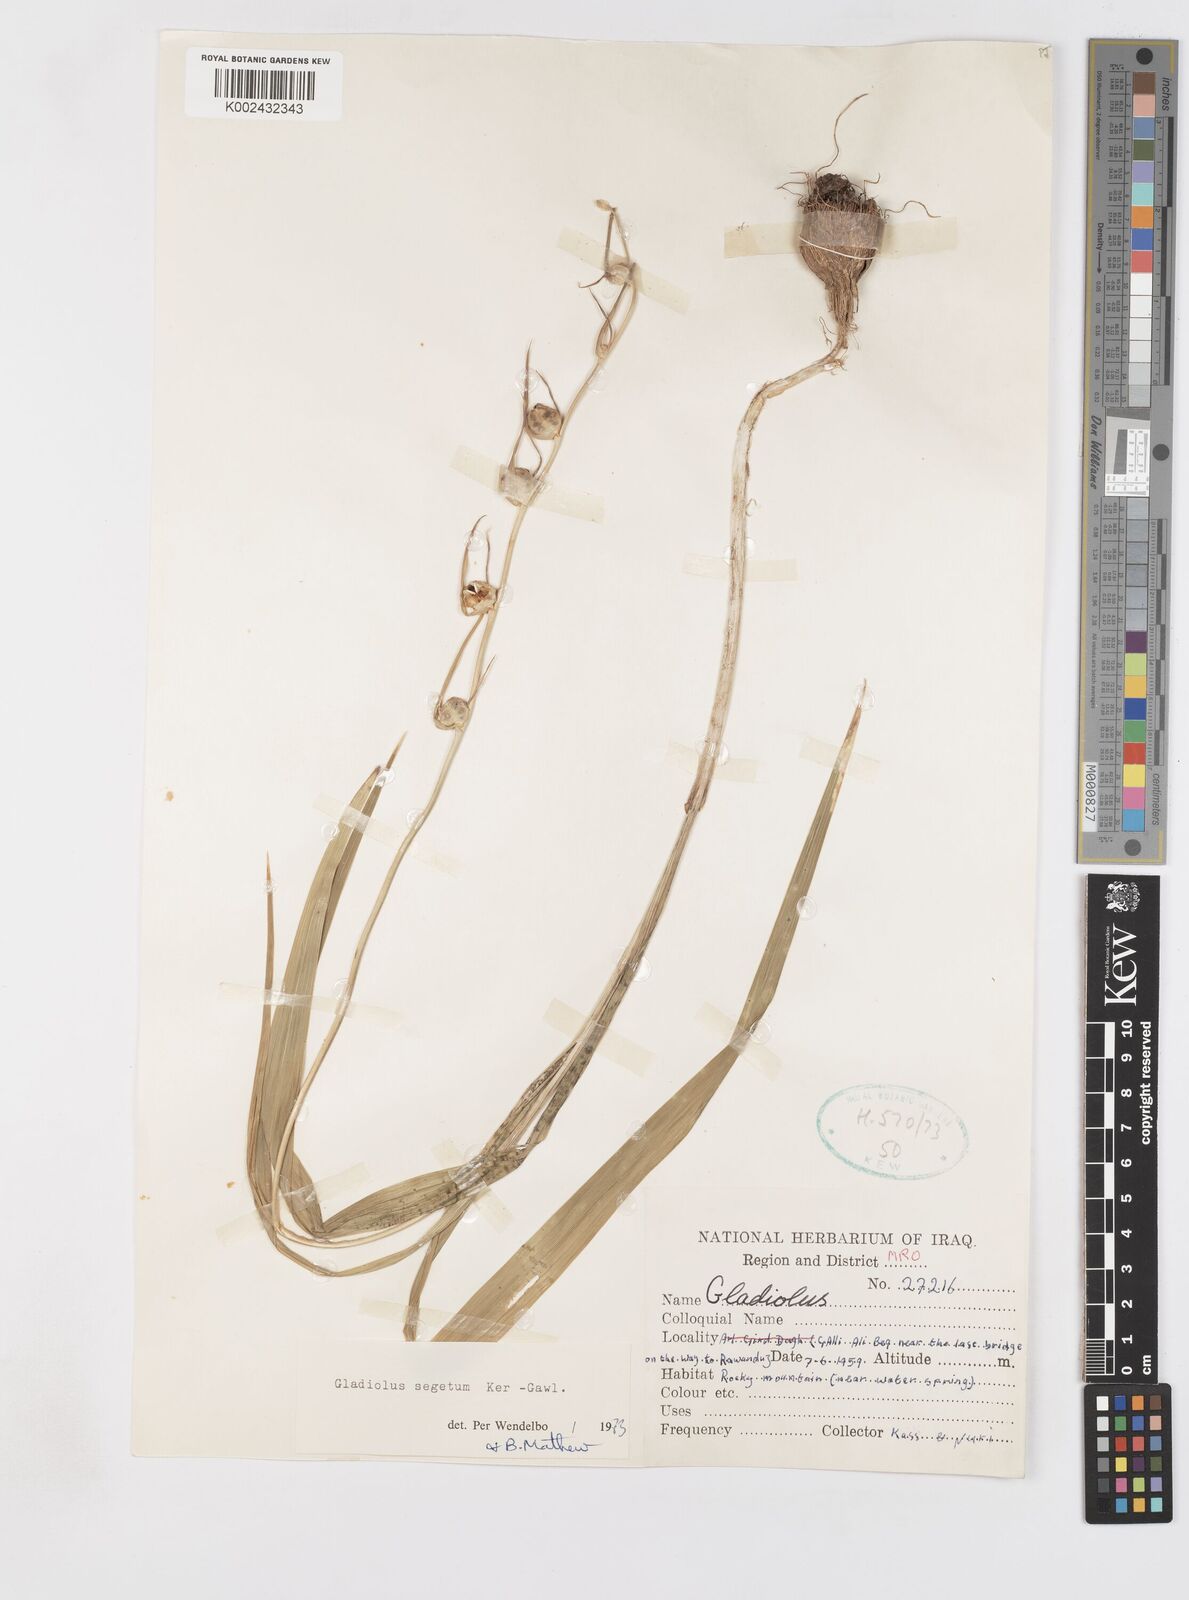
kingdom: Plantae
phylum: Tracheophyta
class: Liliopsida
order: Asparagales
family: Iridaceae
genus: Gladiolus
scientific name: Gladiolus italicus
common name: Field gladiolus
